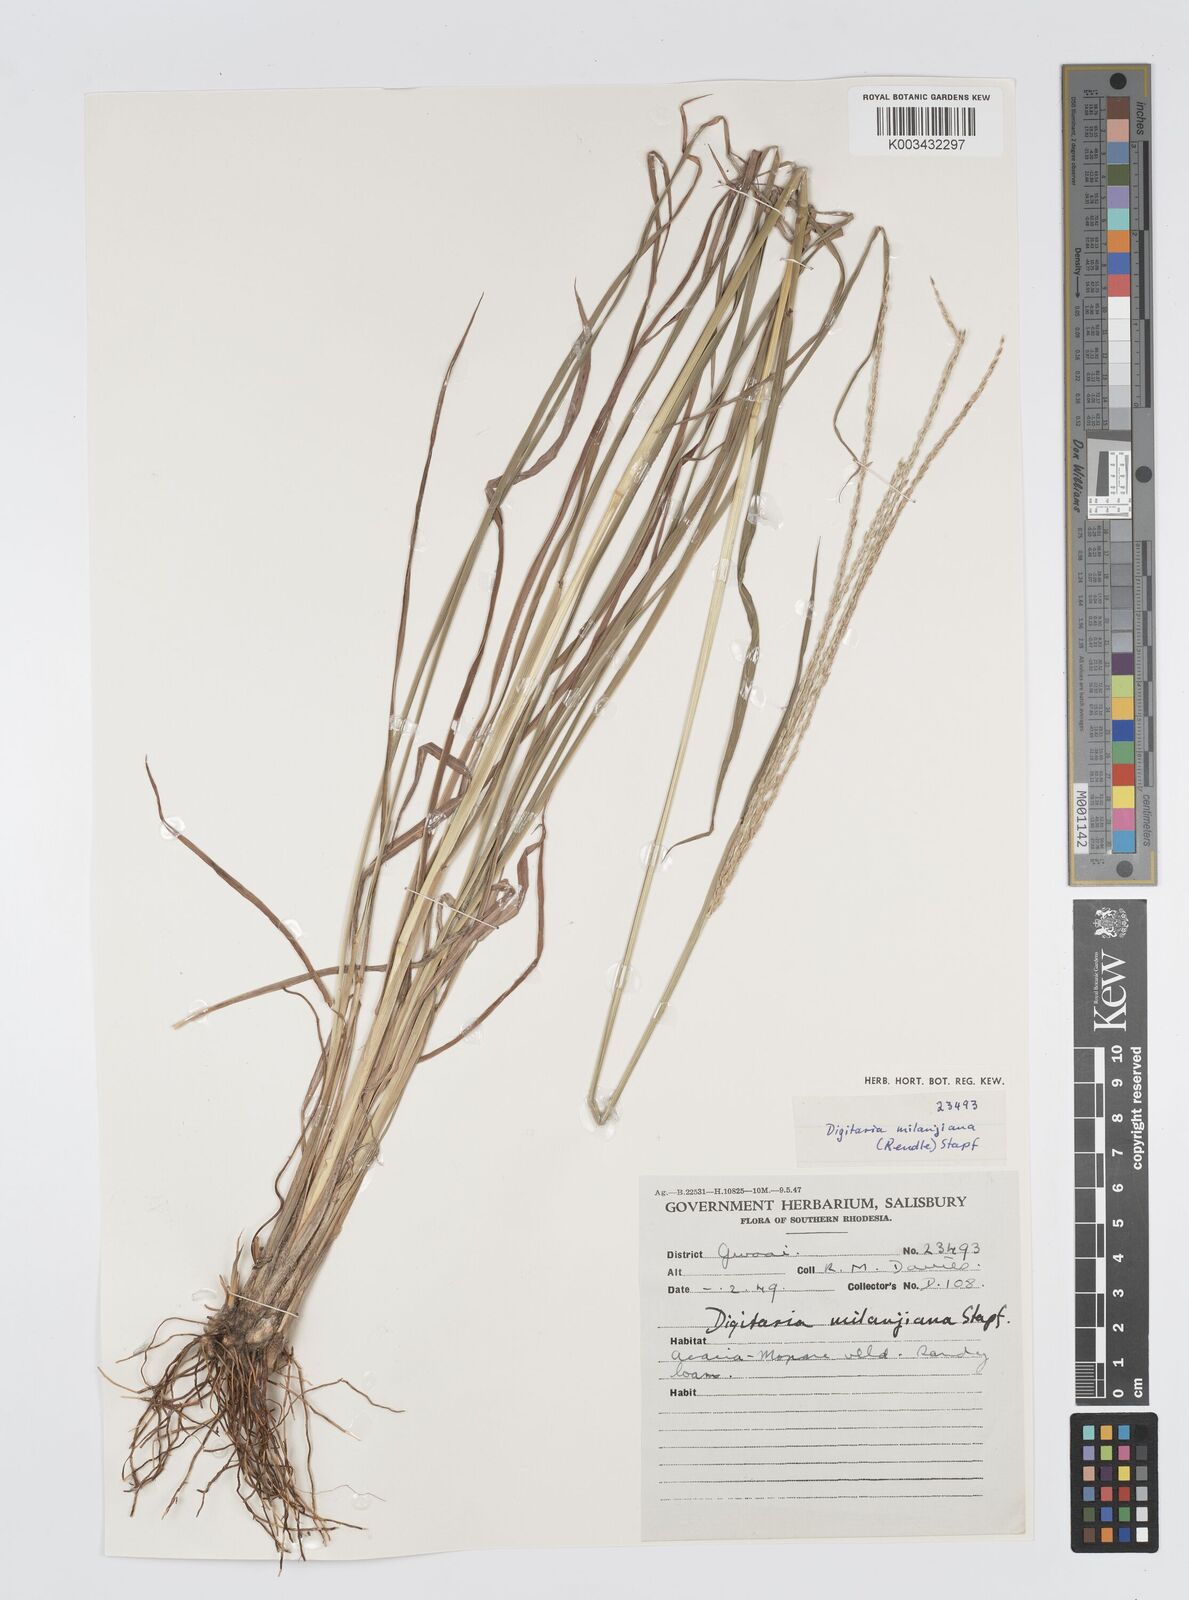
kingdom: Plantae
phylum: Tracheophyta
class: Liliopsida
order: Poales
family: Poaceae
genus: Digitaria
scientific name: Digitaria seriata
